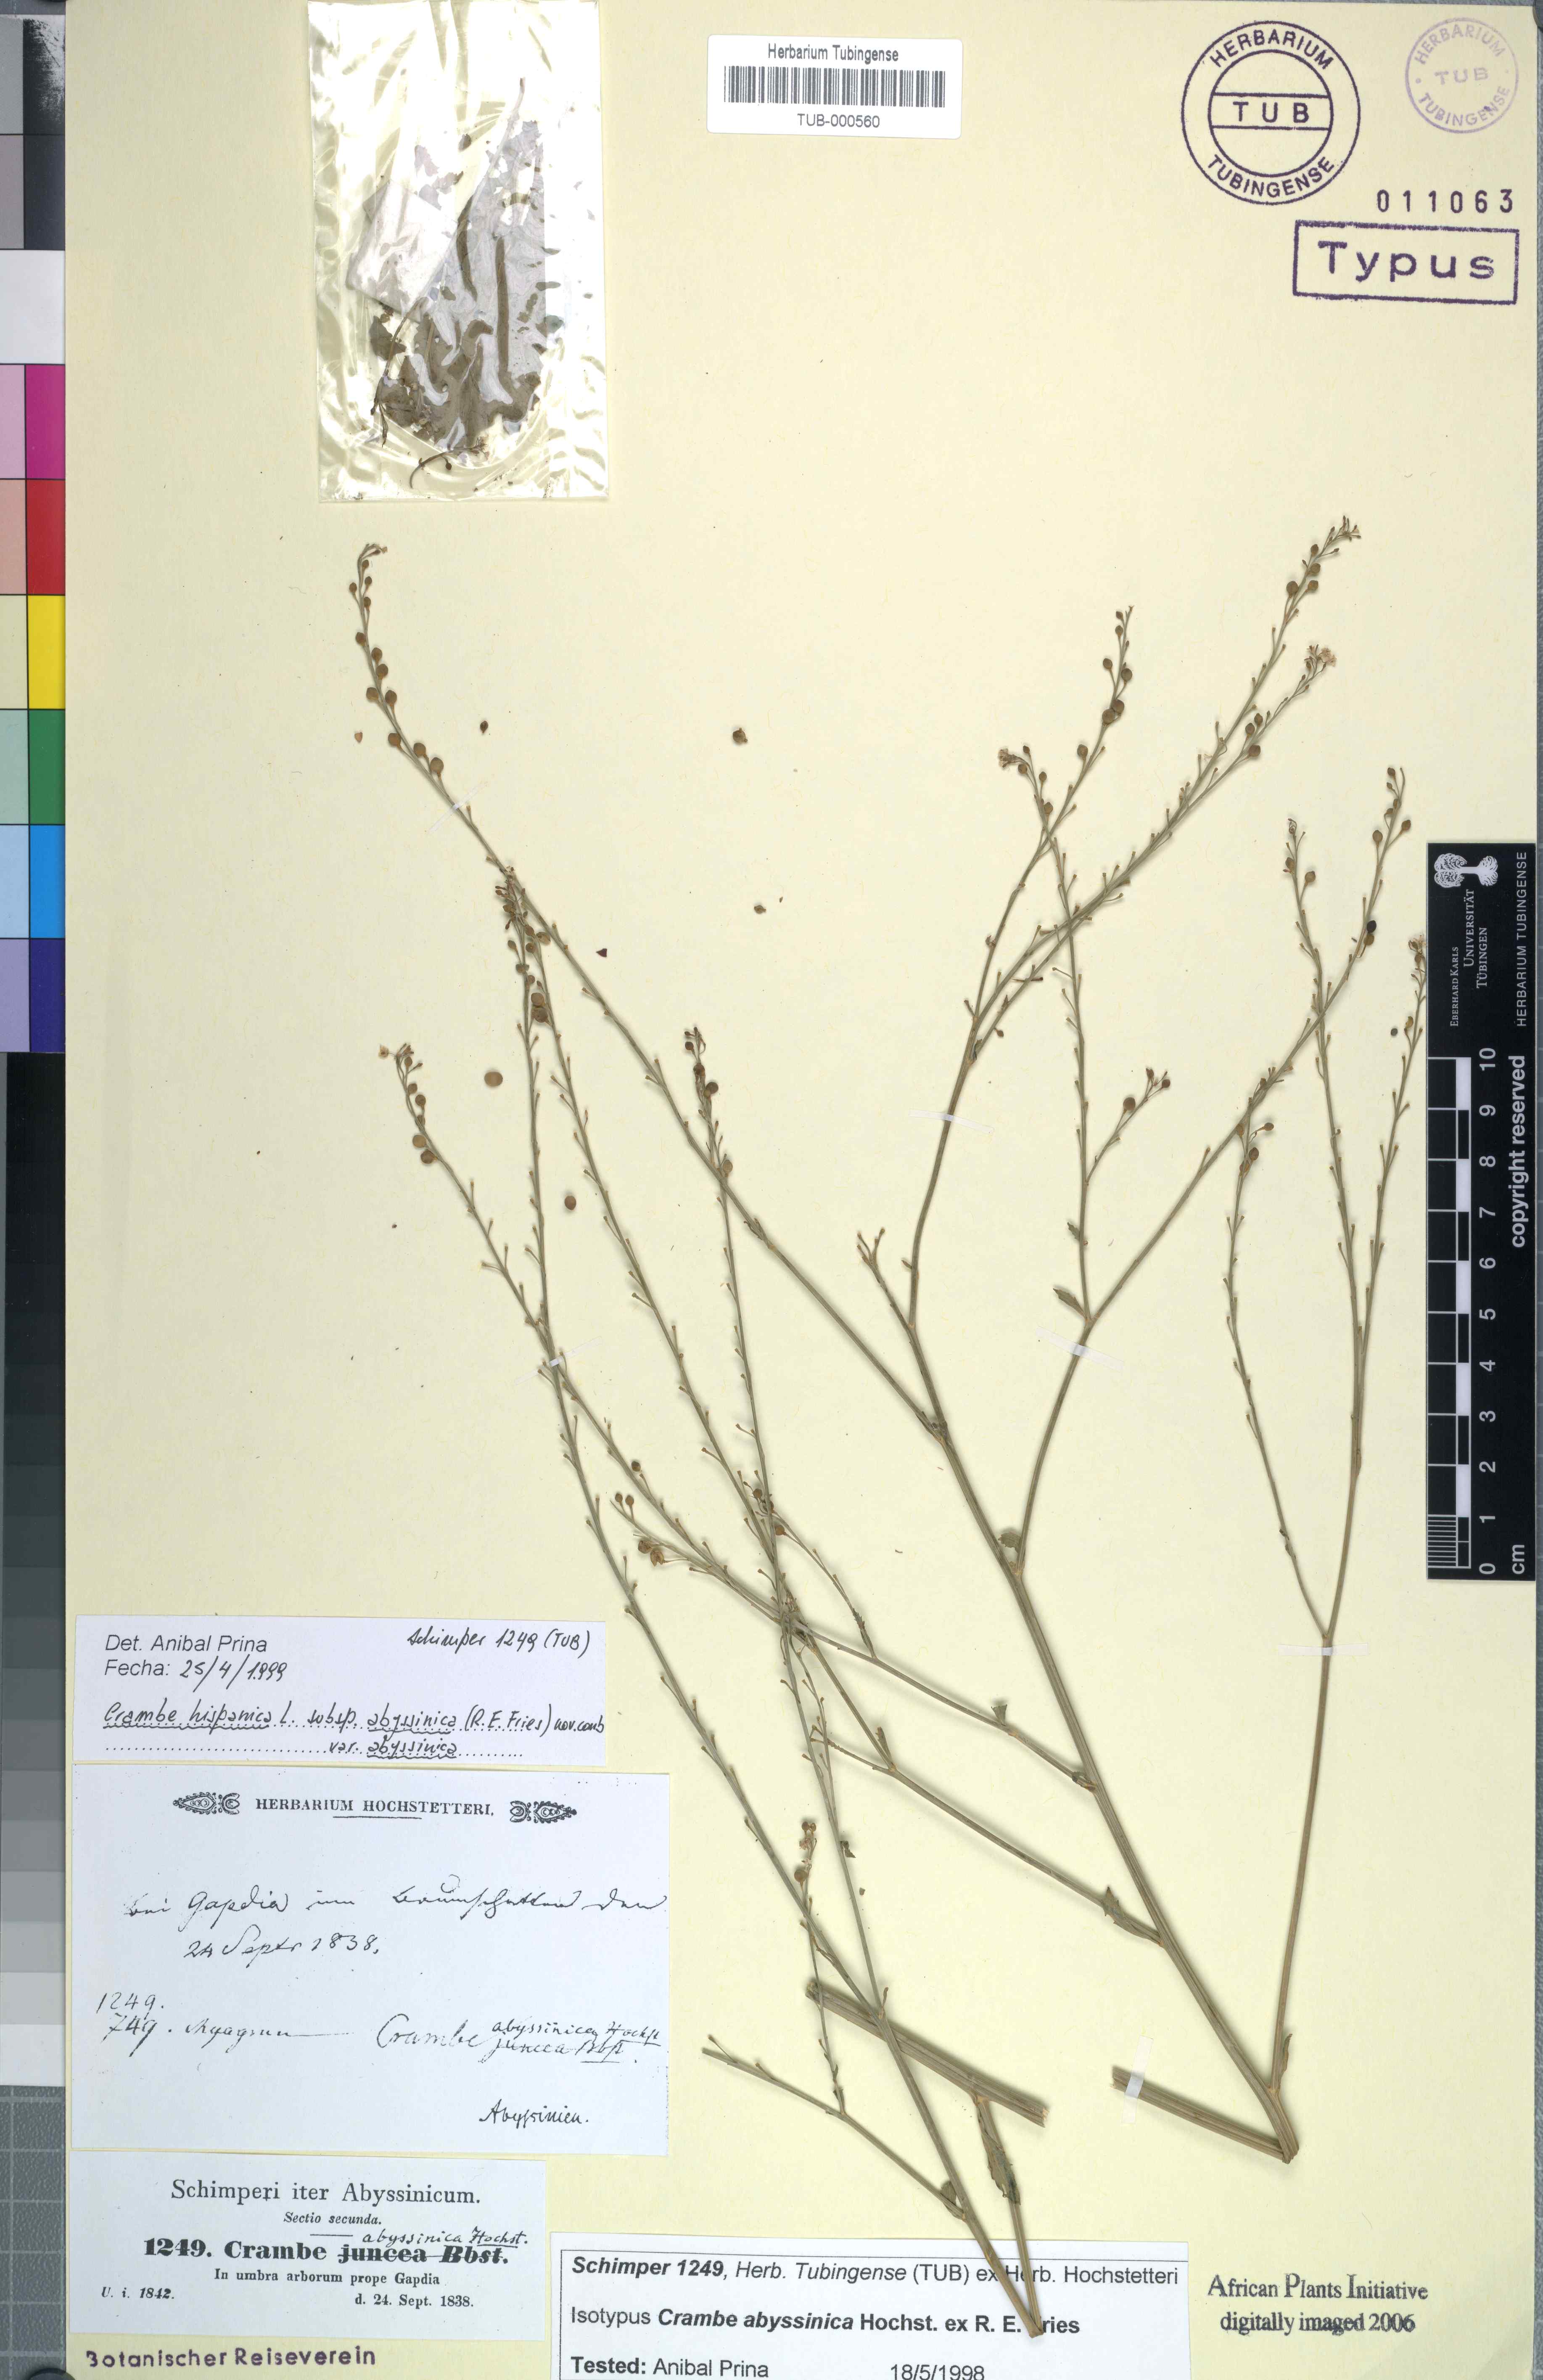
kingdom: Plantae
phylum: Tracheophyta
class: Magnoliopsida
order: Brassicales
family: Brassicaceae
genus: Crambe
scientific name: Crambe hispanica
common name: Abyssinian mustard
